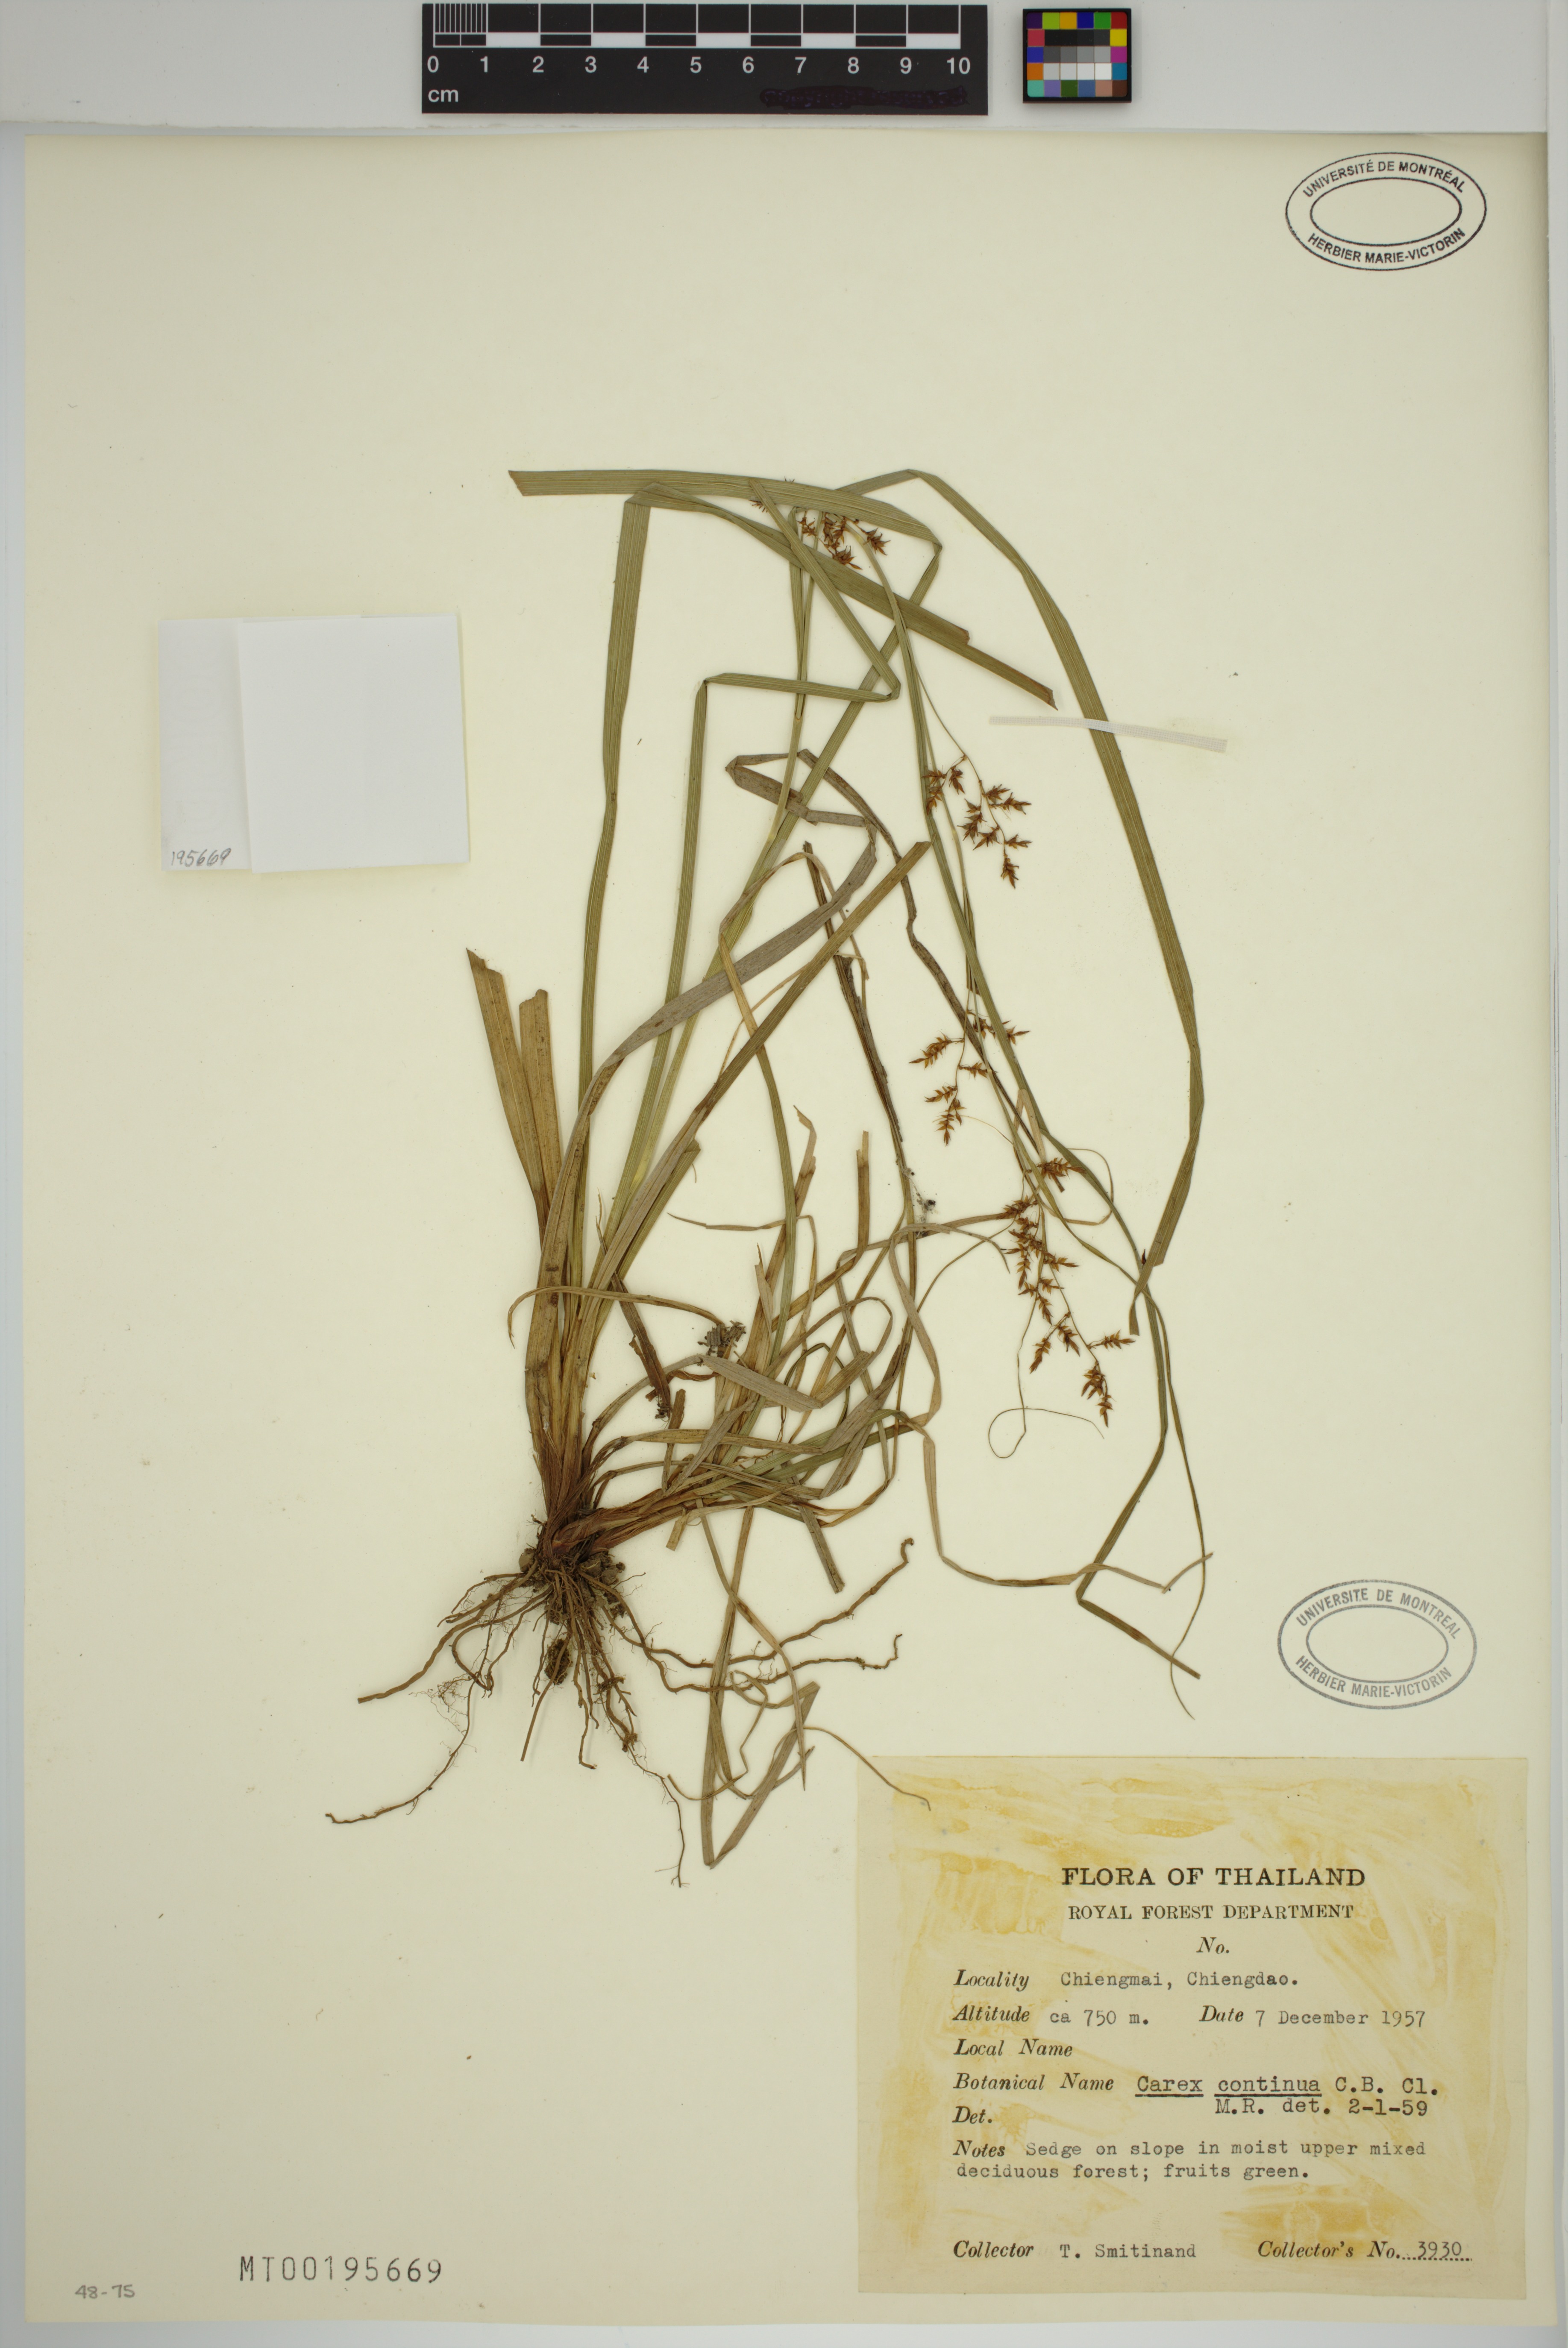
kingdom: Plantae
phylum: Tracheophyta
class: Liliopsida
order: Poales
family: Cyperaceae
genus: Carex
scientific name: Carex continua
